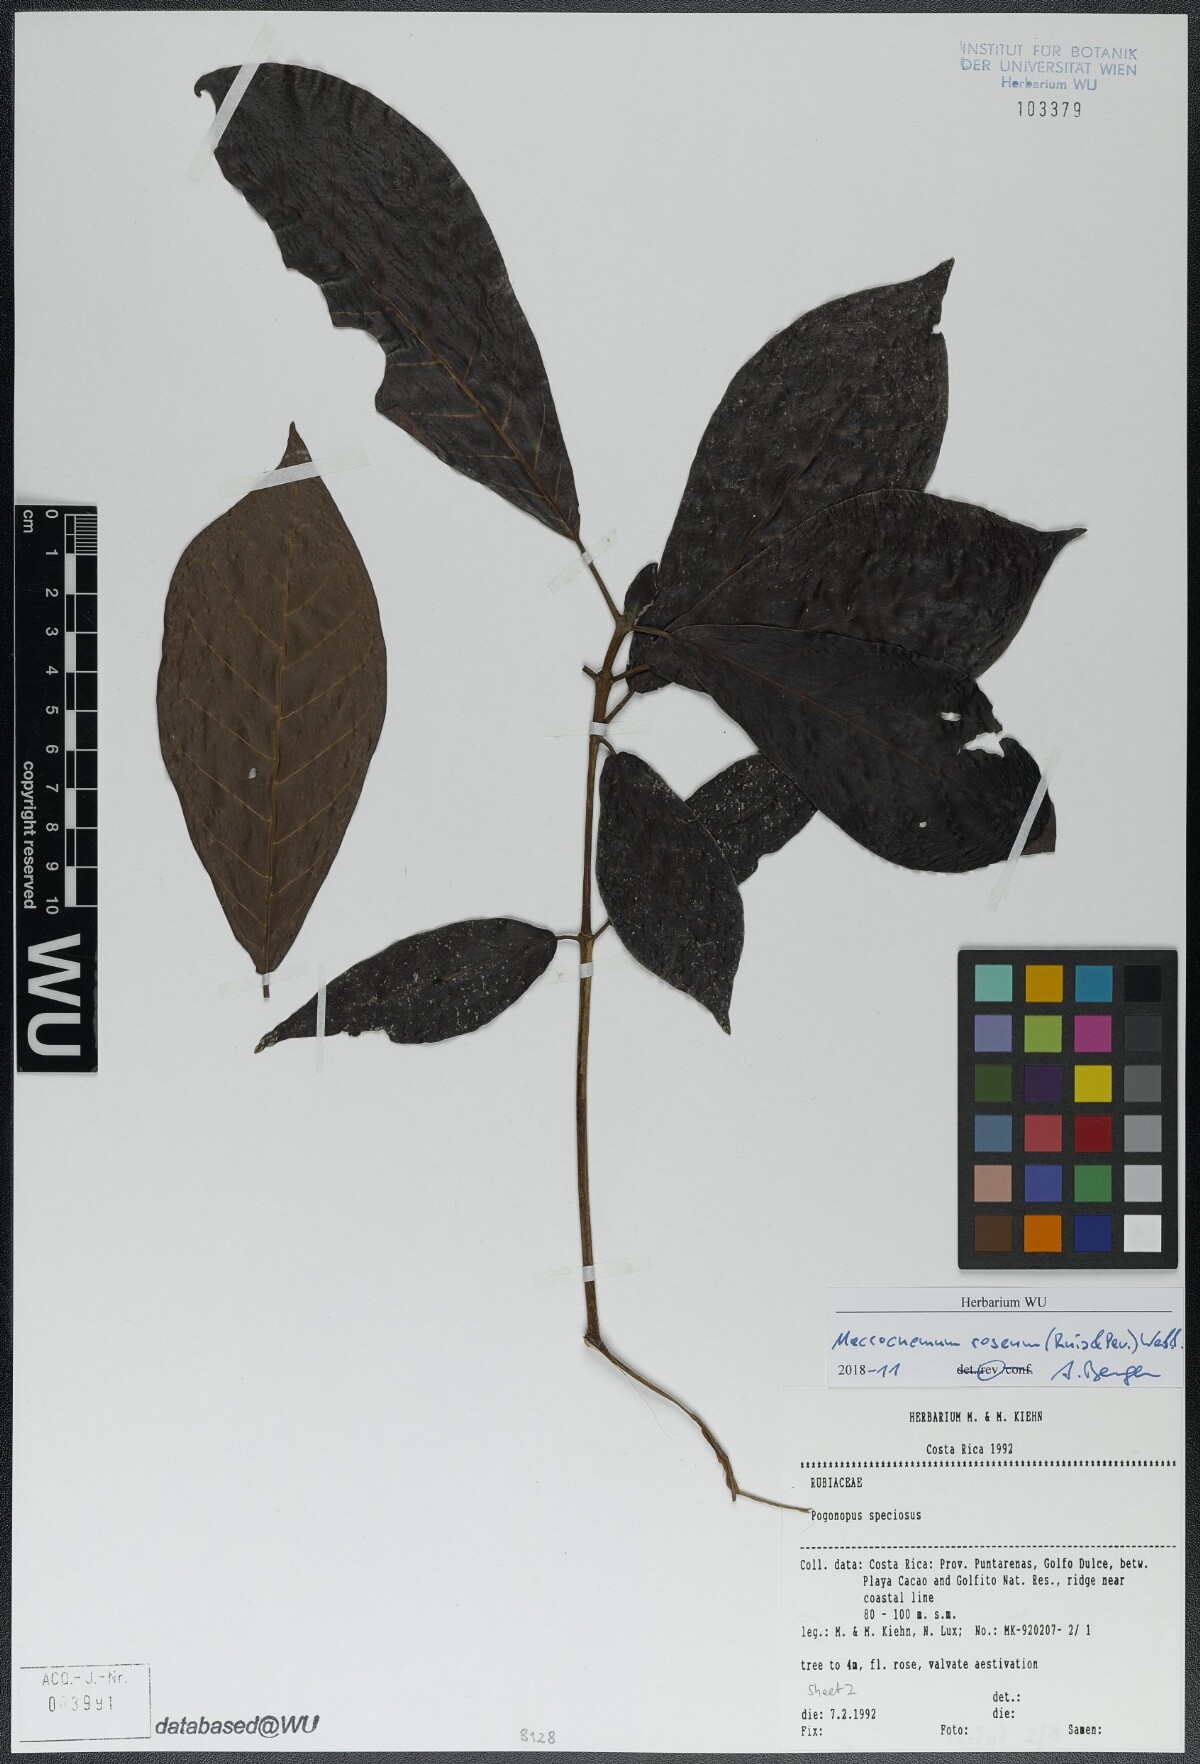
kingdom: Plantae
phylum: Tracheophyta
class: Magnoliopsida
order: Gentianales
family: Rubiaceae
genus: Macrocnemum
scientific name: Macrocnemum roseum
